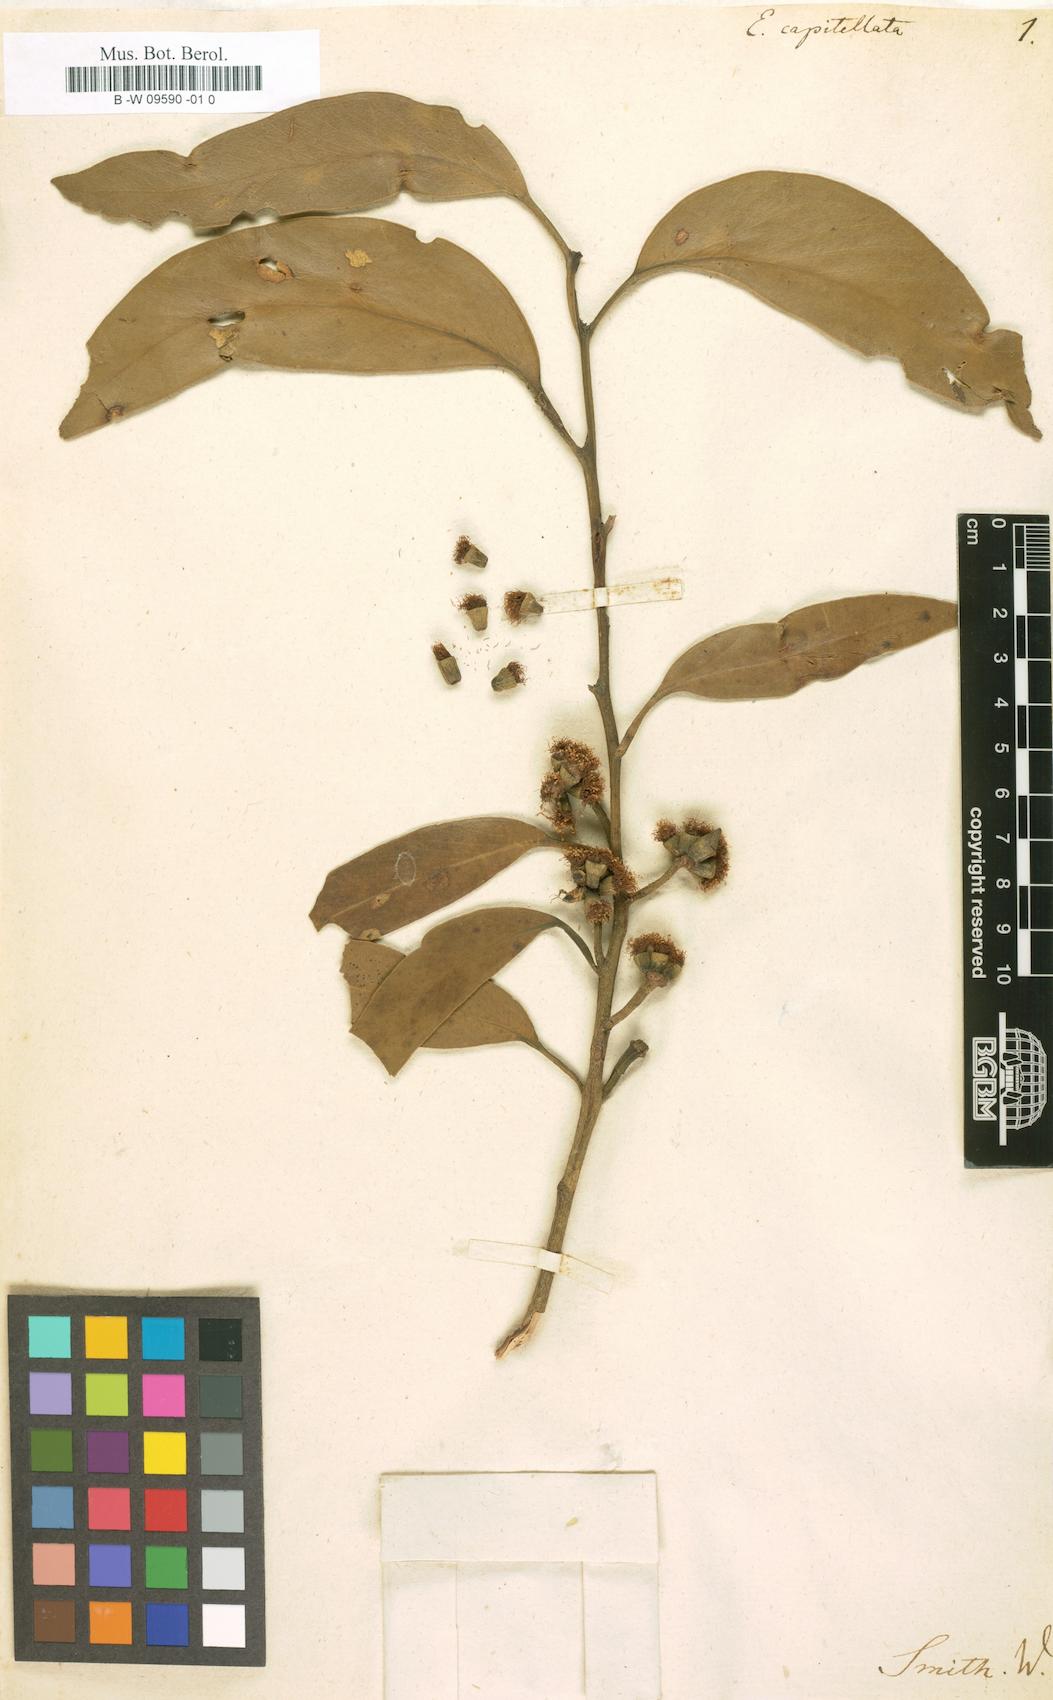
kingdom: Plantae
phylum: Tracheophyta
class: Magnoliopsida
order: Myrtales
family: Myrtaceae
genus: Eucalyptus
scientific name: Eucalyptus capitellata
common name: Brown-stringy-bark
